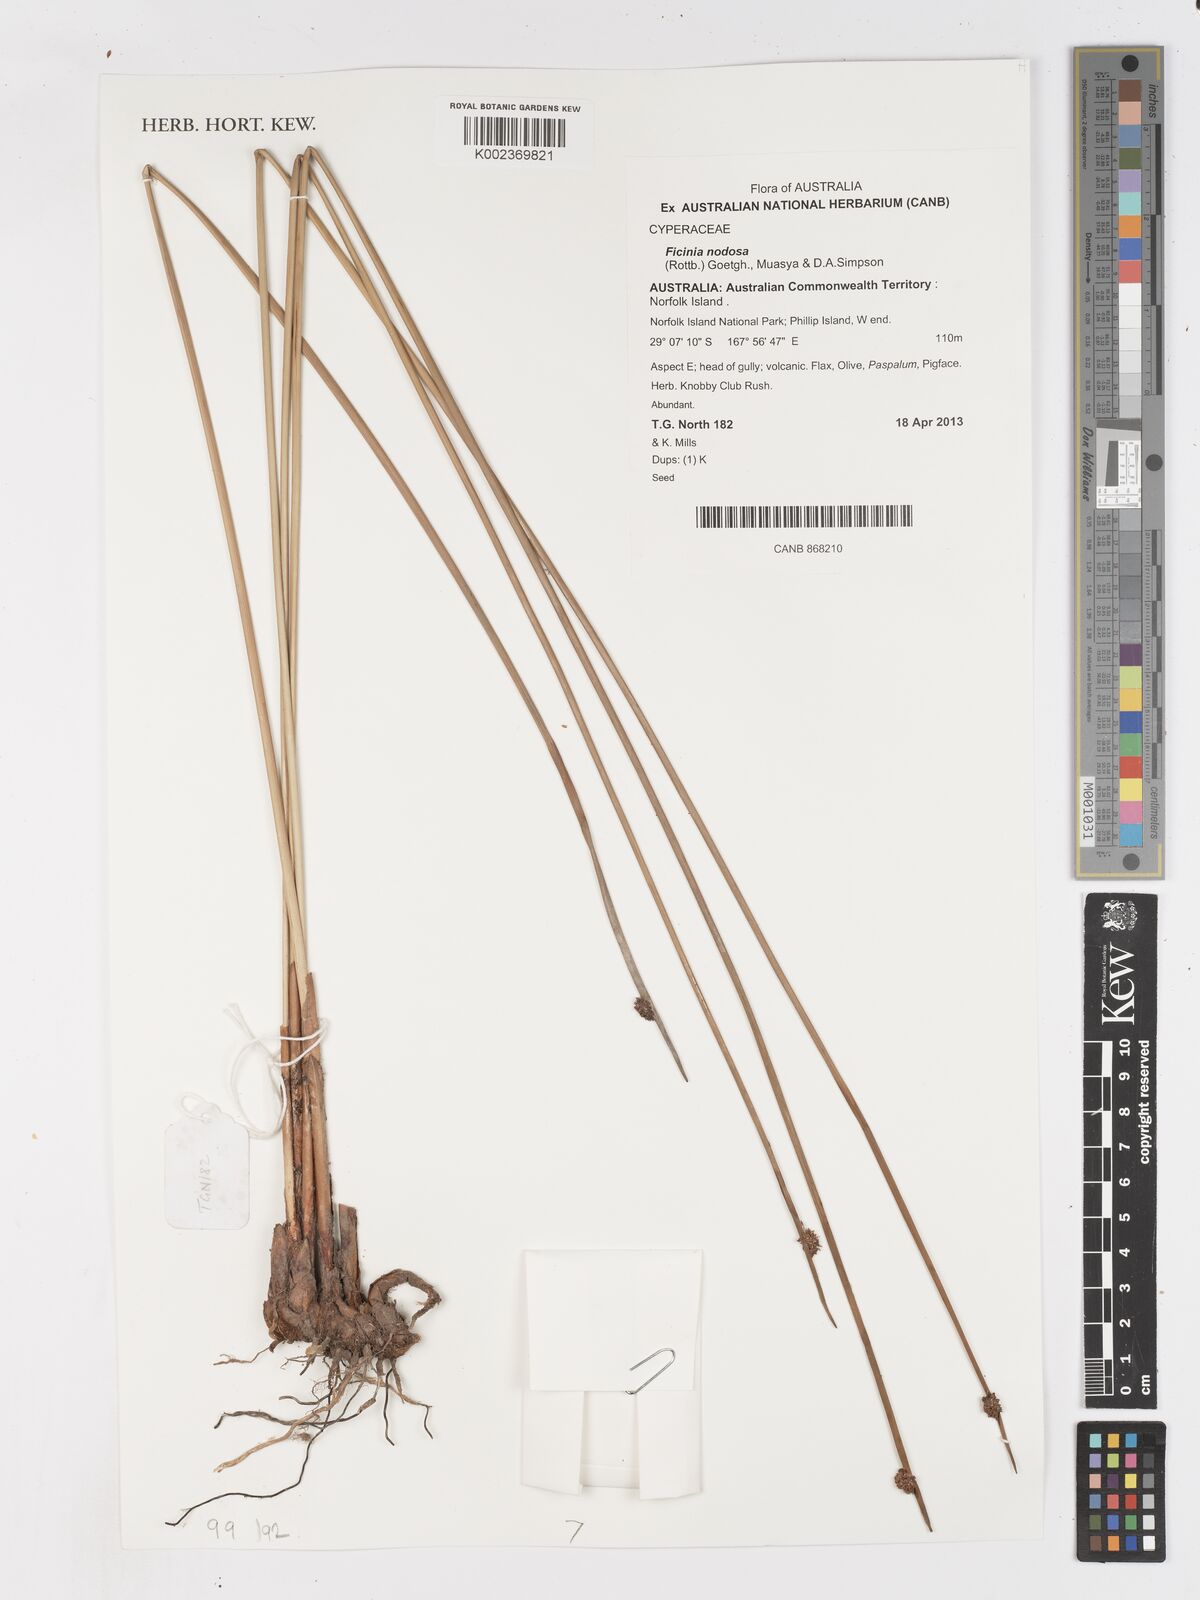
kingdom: Plantae
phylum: Tracheophyta
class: Liliopsida
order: Poales
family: Cyperaceae
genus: Ficinia
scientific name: Ficinia nodosa
